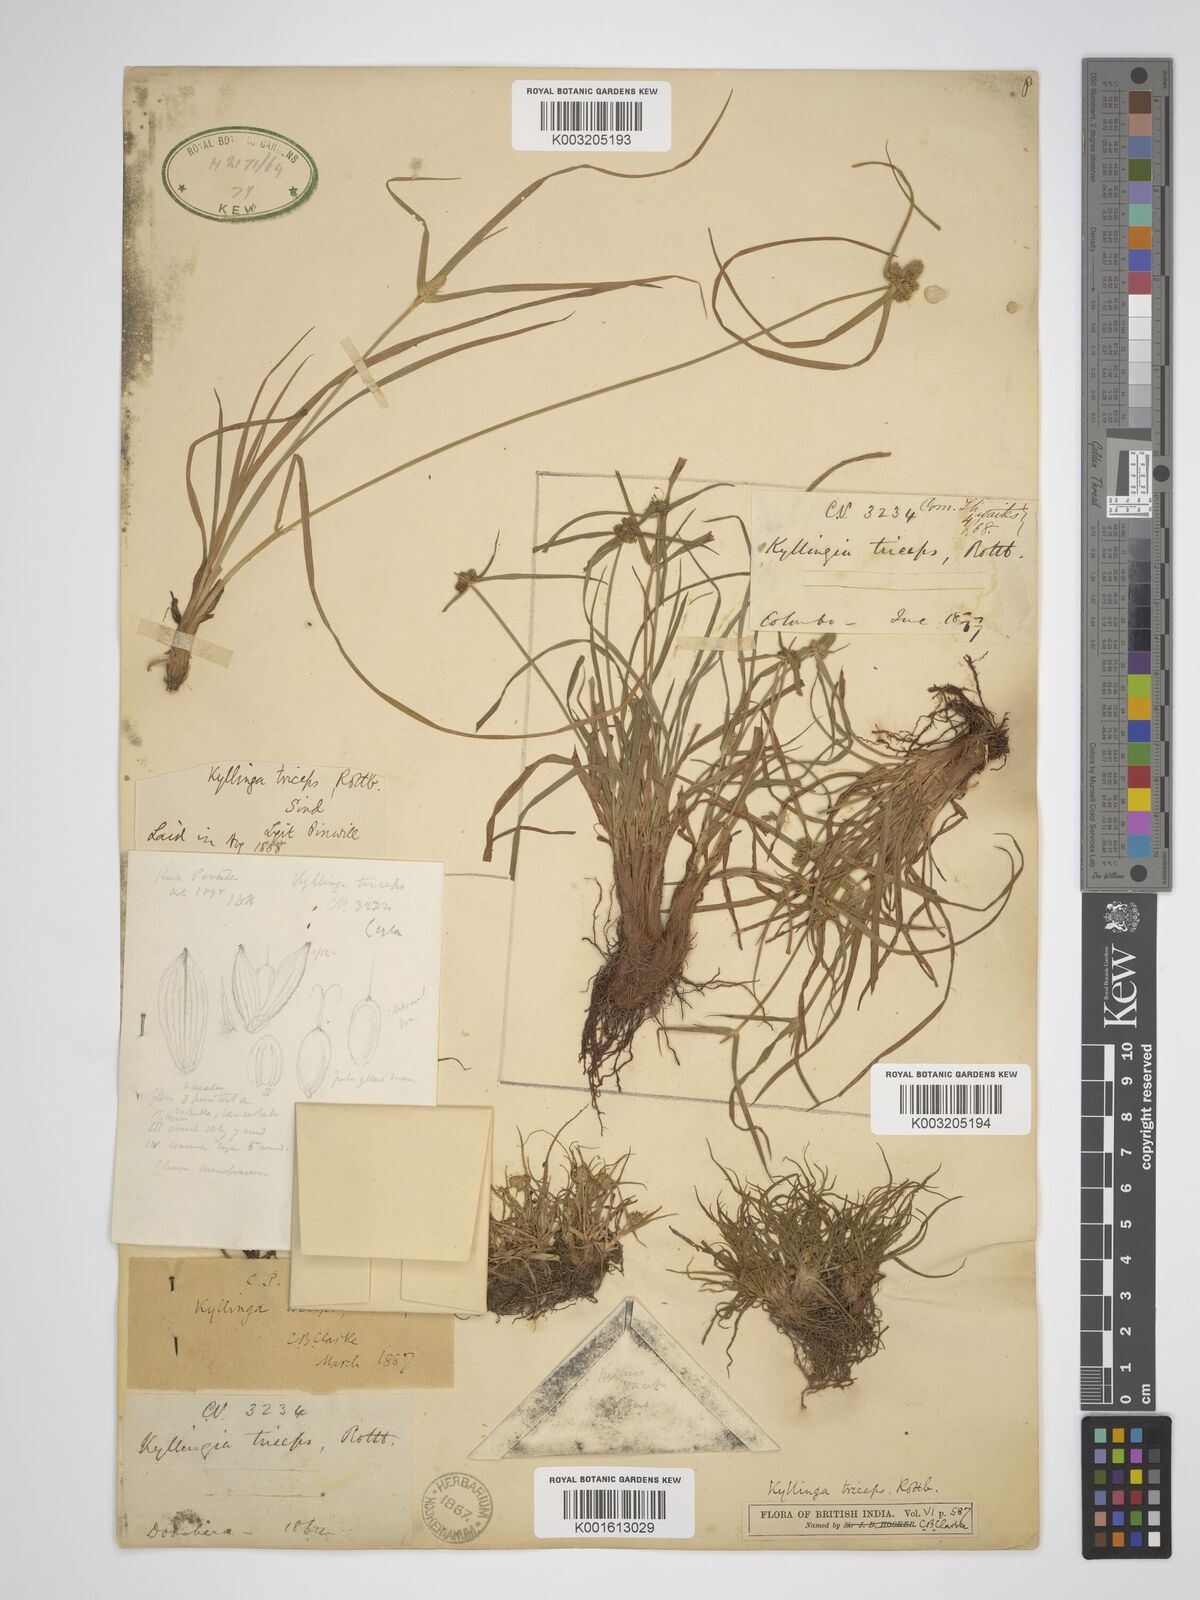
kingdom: Plantae
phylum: Tracheophyta
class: Liliopsida
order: Poales
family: Cyperaceae
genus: Cyperus
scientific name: Cyperus dubius
